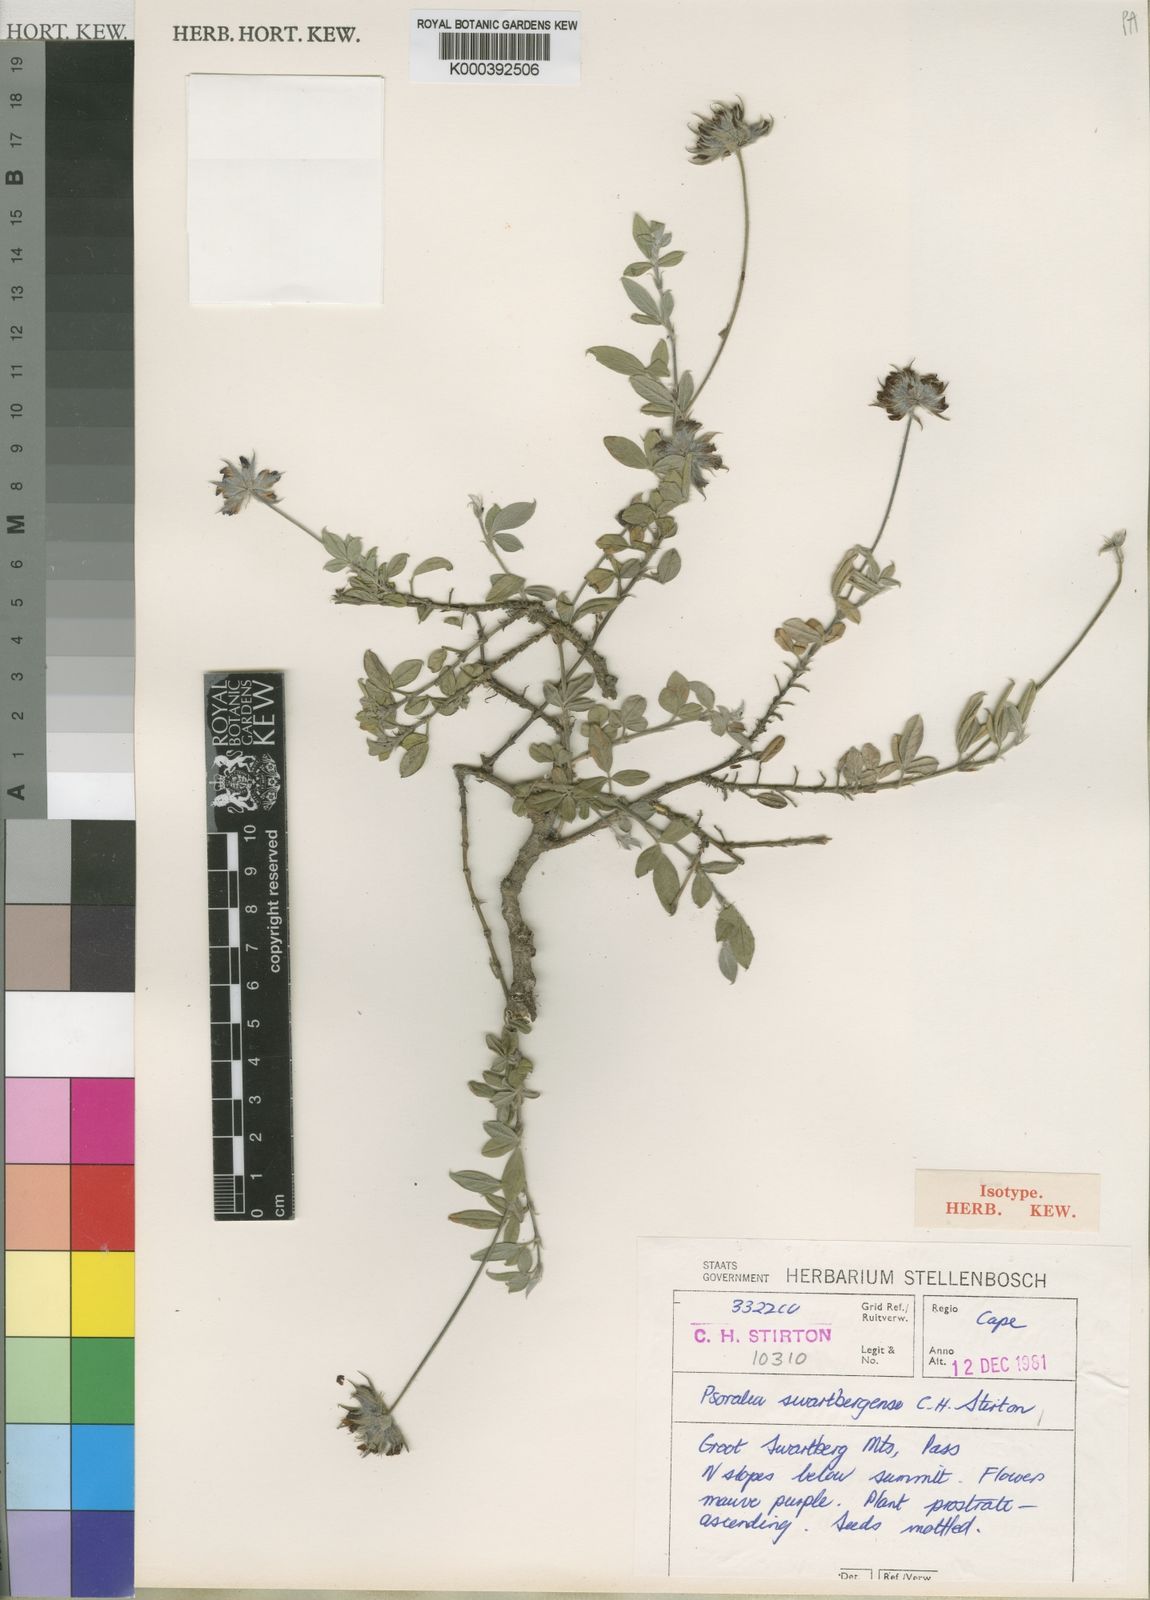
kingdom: Plantae
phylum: Tracheophyta
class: Magnoliopsida
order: Fabales
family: Fabaceae
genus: Psoralea
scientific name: Psoralea swartbergensis
